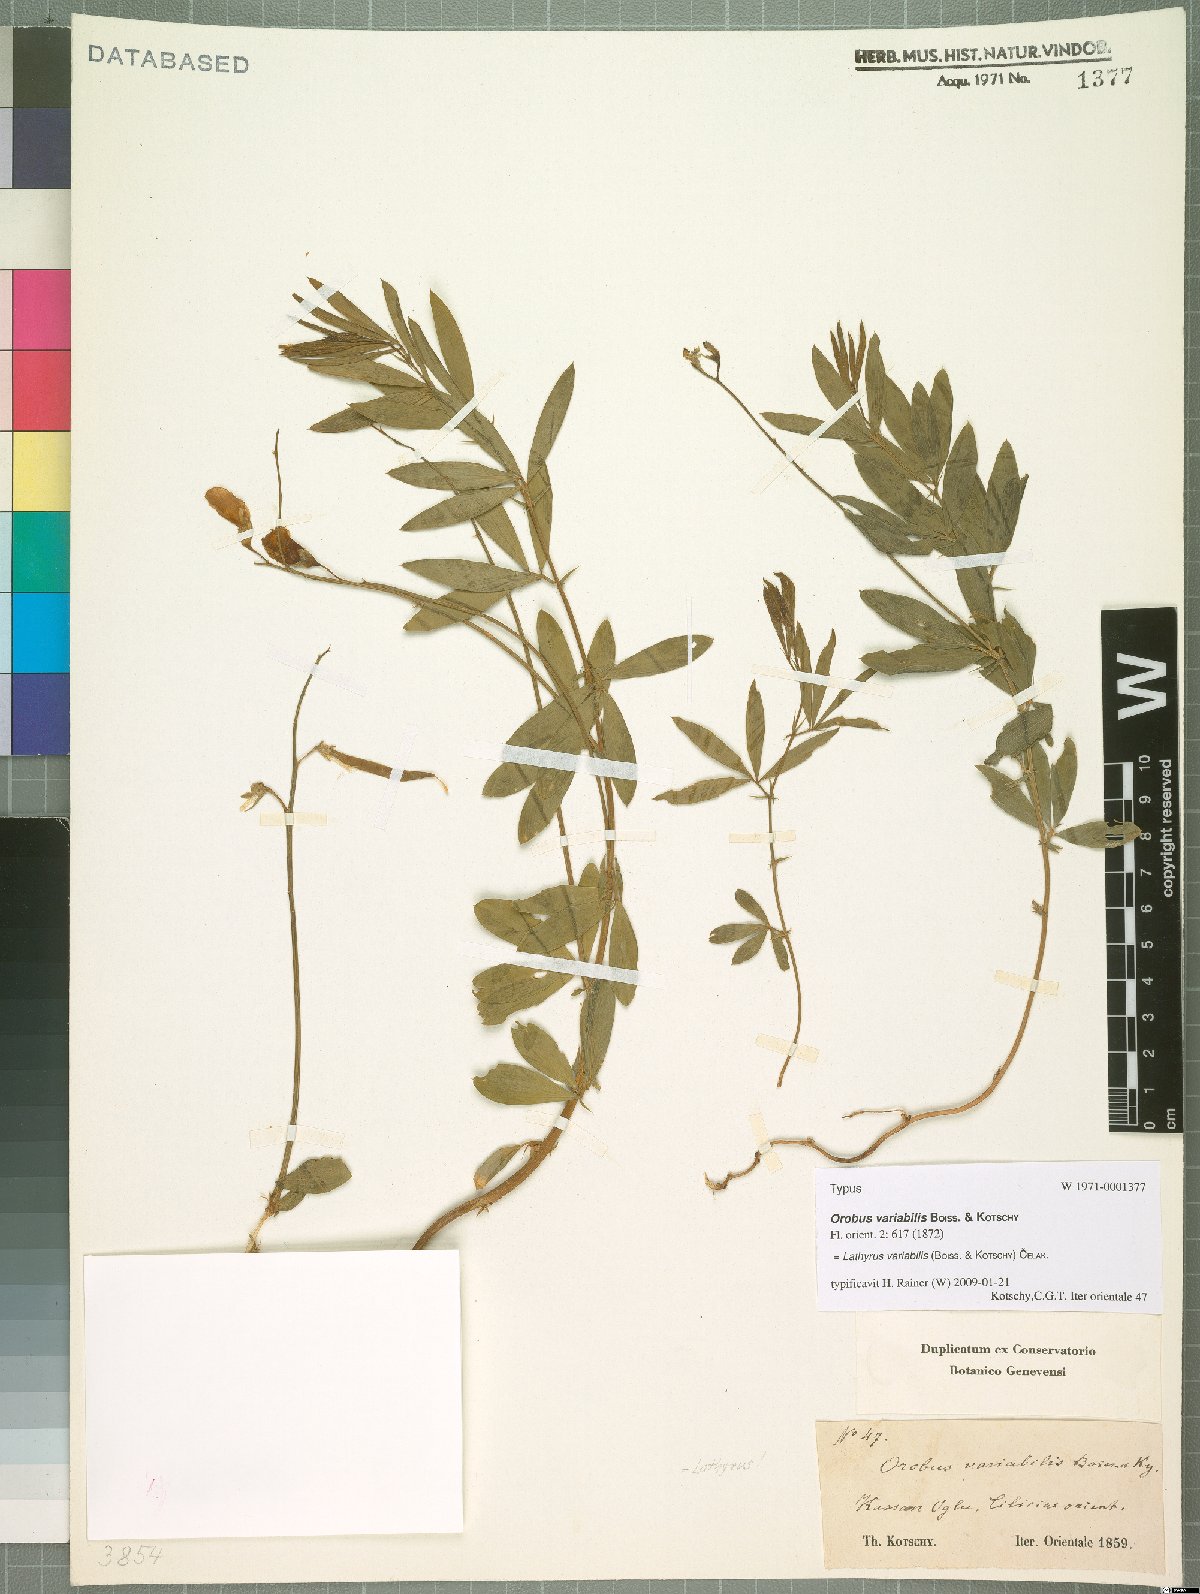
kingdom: Plantae
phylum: Tracheophyta
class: Magnoliopsida
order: Fabales
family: Fabaceae
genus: Lathyrus
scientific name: Lathyrus variabilis
